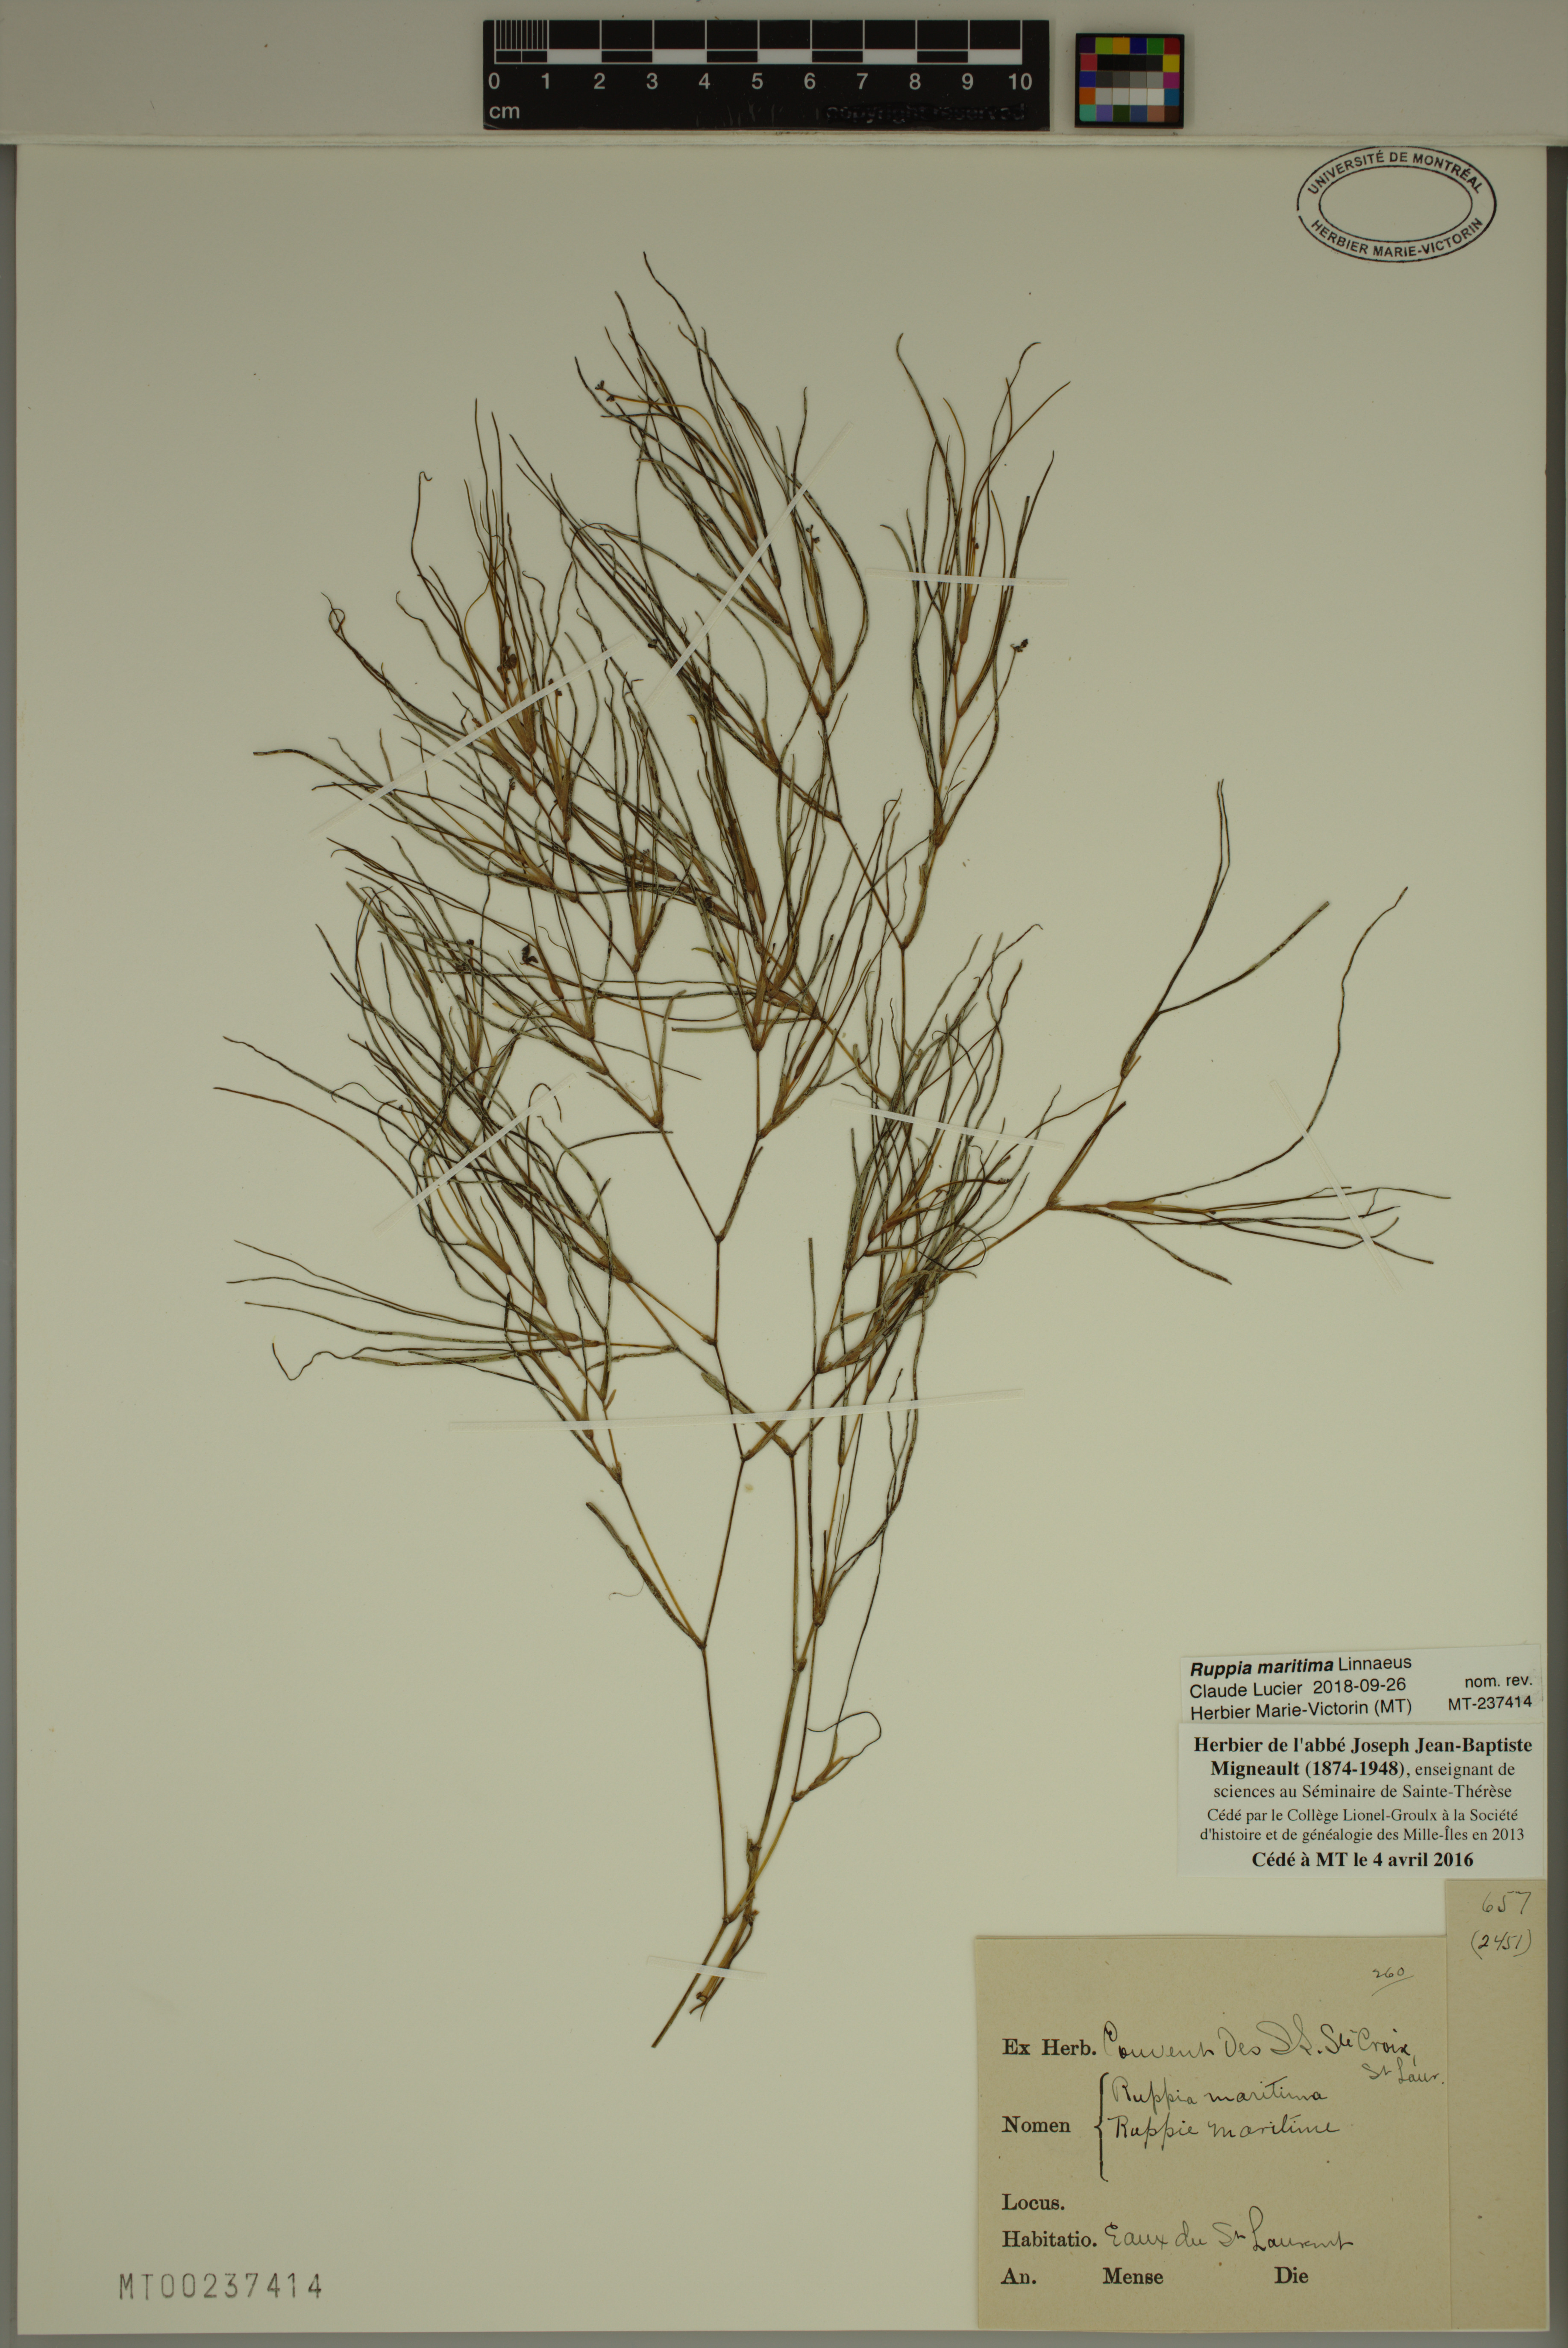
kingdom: Plantae
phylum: Tracheophyta
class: Liliopsida
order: Alismatales
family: Ruppiaceae
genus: Ruppia
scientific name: Ruppia maritima
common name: Beaked tasselweed
